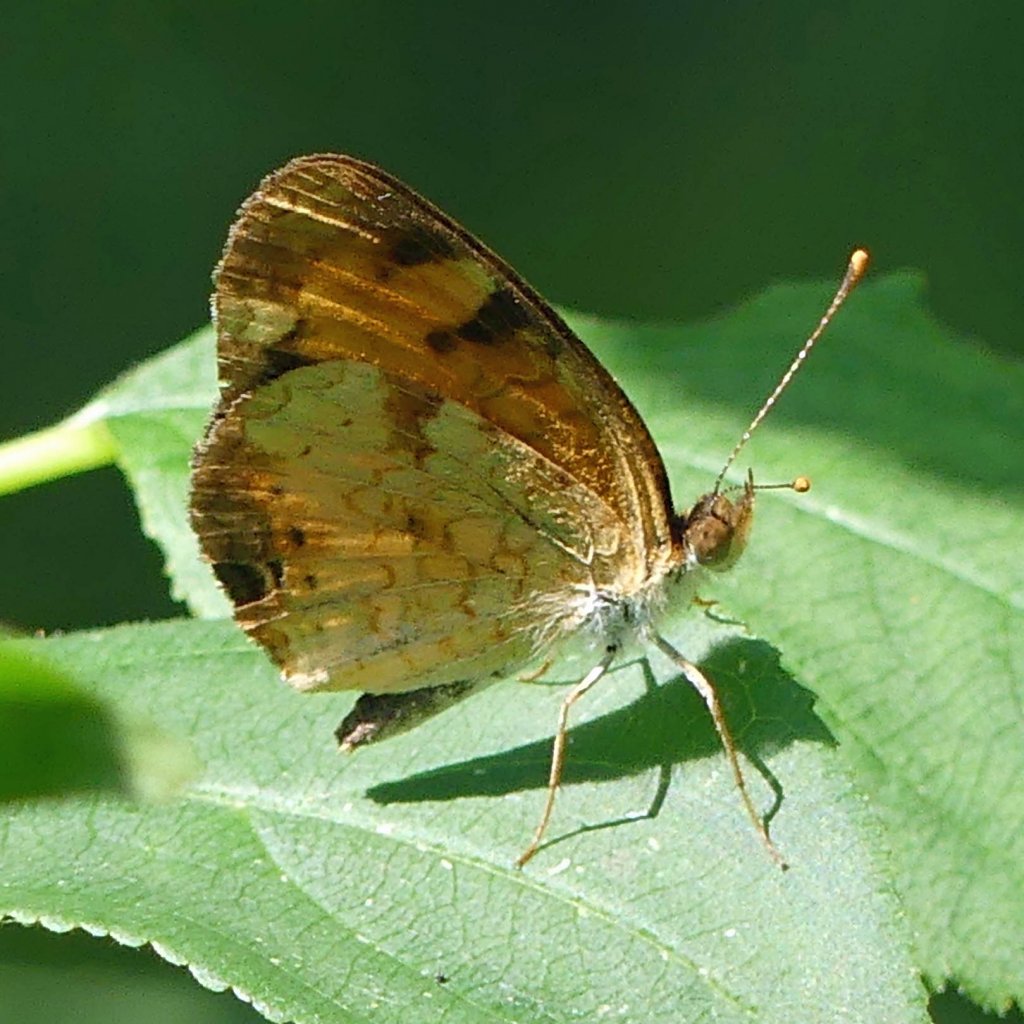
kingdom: Animalia
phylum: Arthropoda
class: Insecta
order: Lepidoptera
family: Nymphalidae
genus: Phyciodes
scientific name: Phyciodes tharos
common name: Northern Crescent
